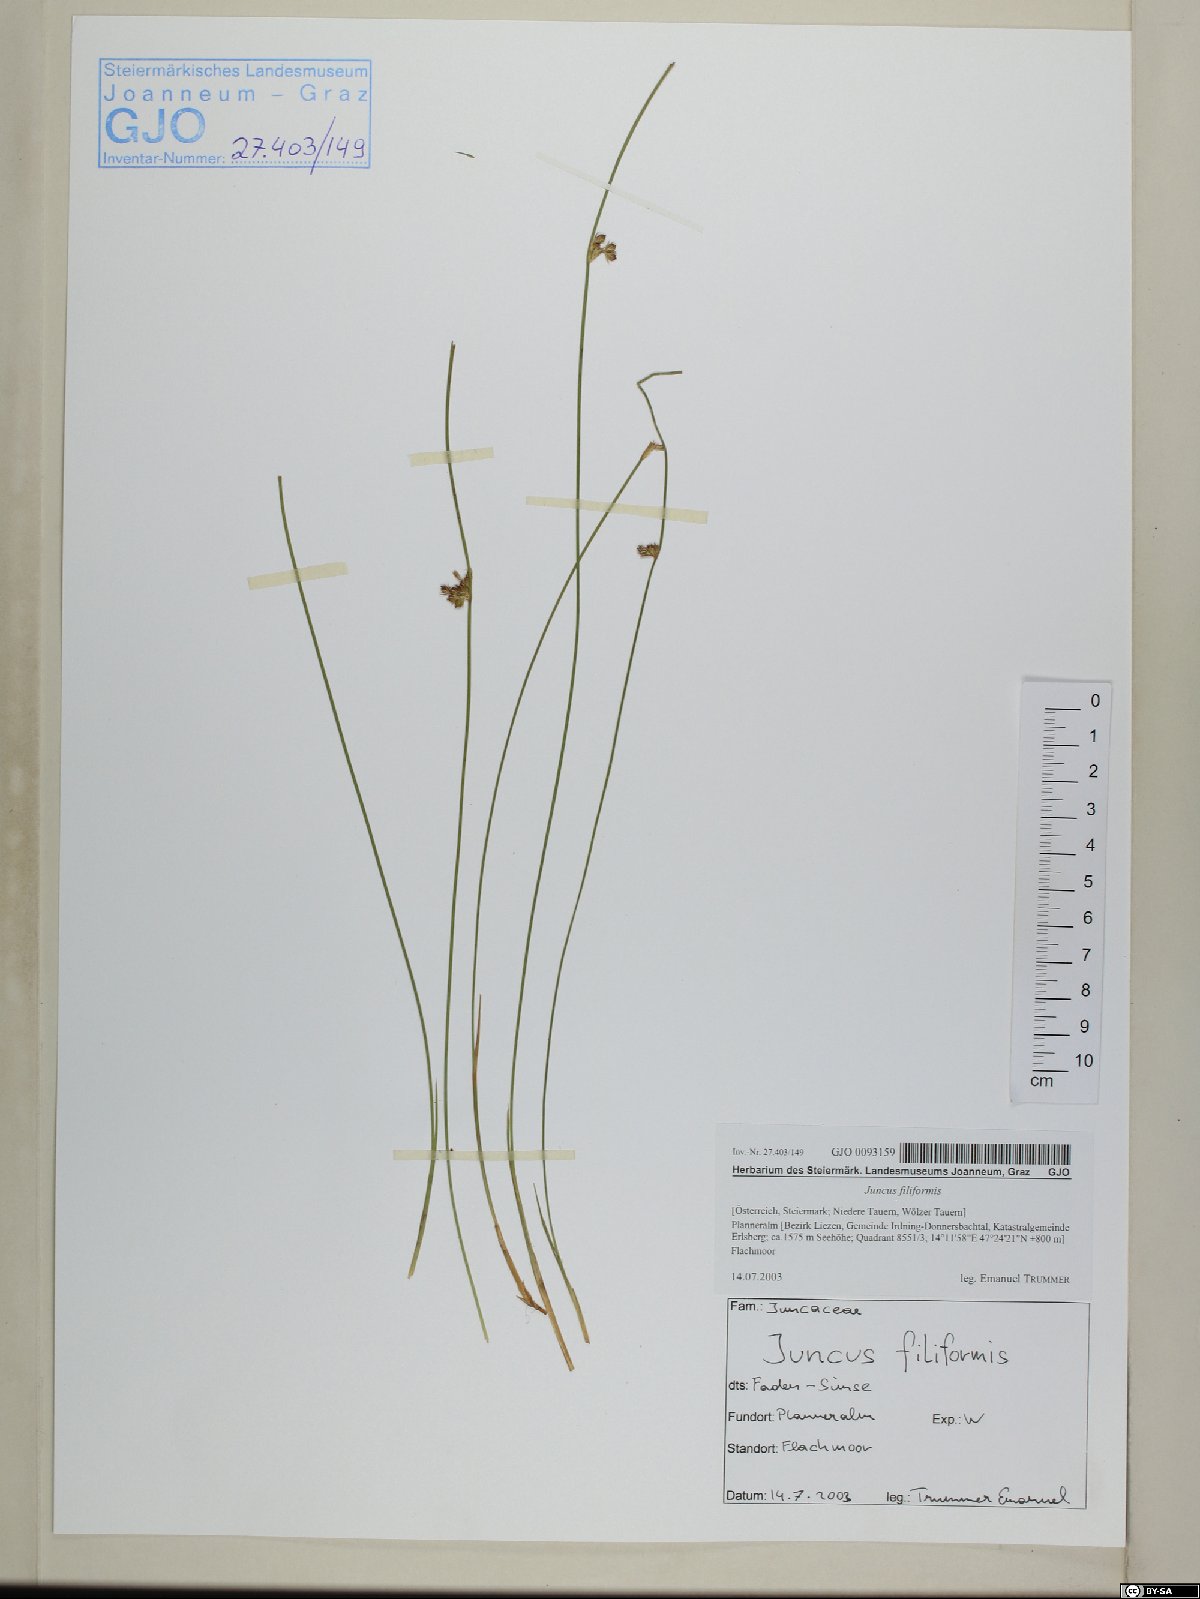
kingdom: Plantae
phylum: Tracheophyta
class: Liliopsida
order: Poales
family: Juncaceae
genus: Juncus
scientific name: Juncus filiformis
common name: Thread rush
